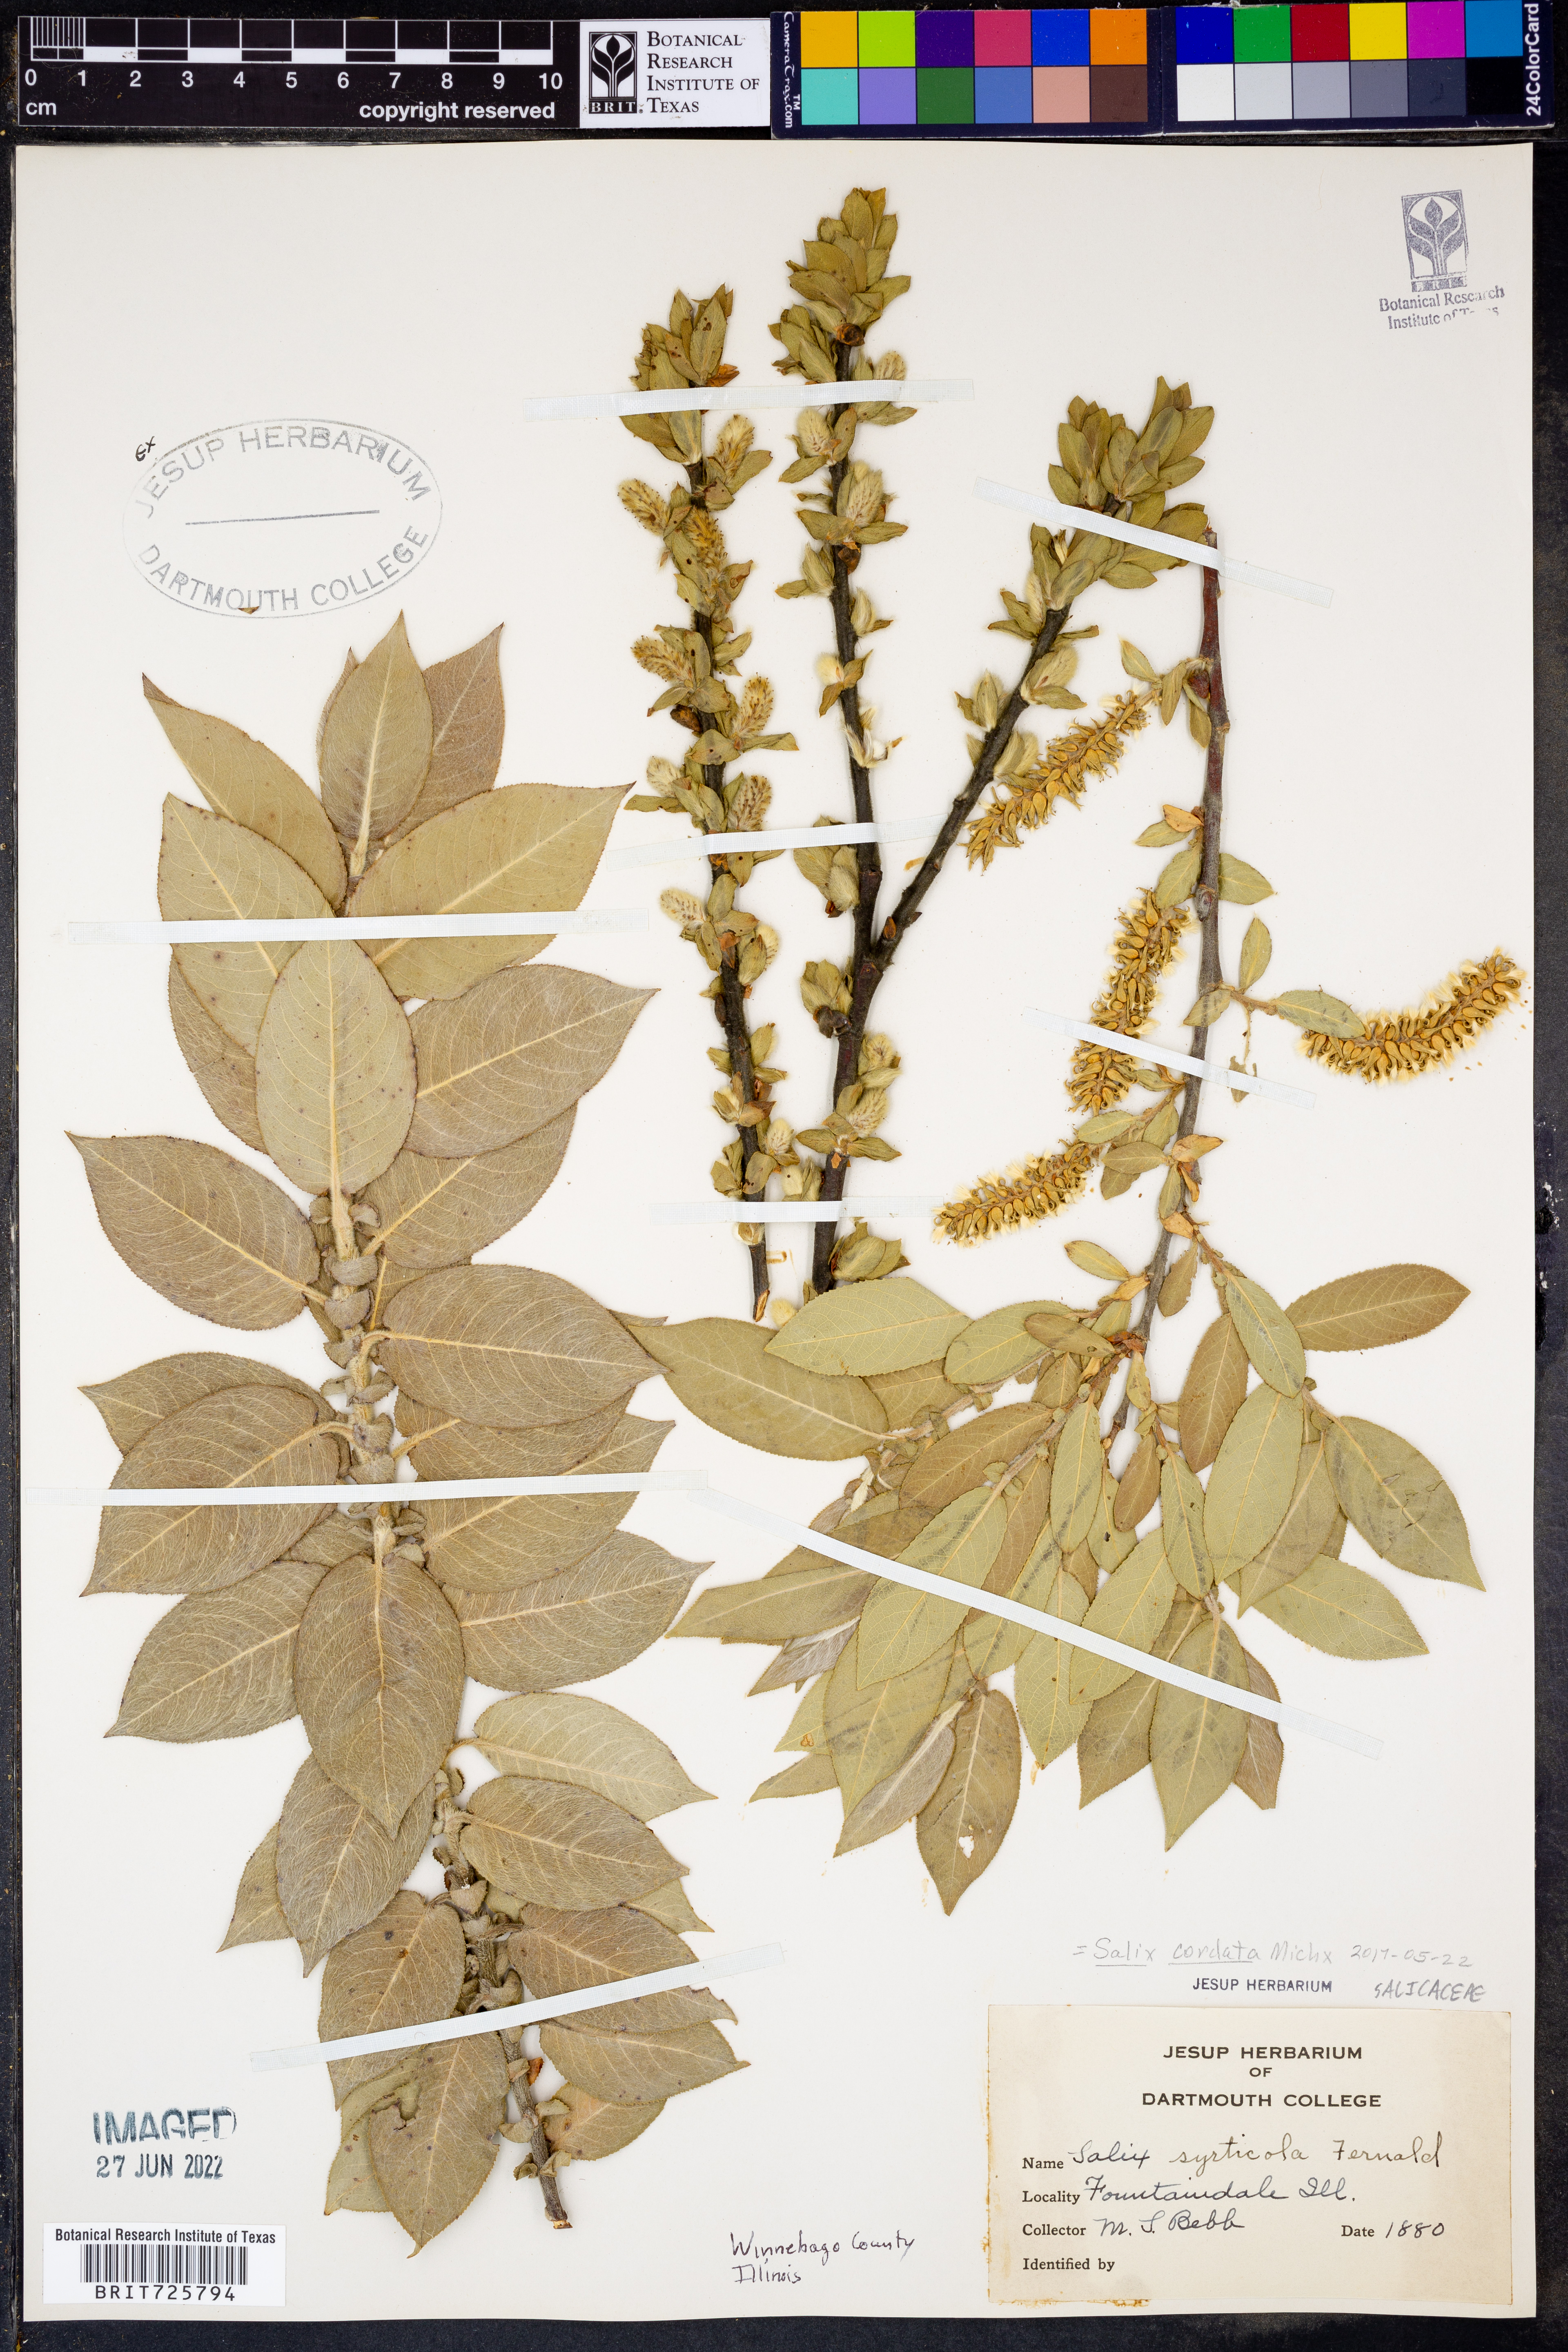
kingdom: Plantae
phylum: Tracheophyta
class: Magnoliopsida
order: Malpighiales
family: Salicaceae
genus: Salix
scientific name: Salix cordata
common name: Heart-leaf willow
